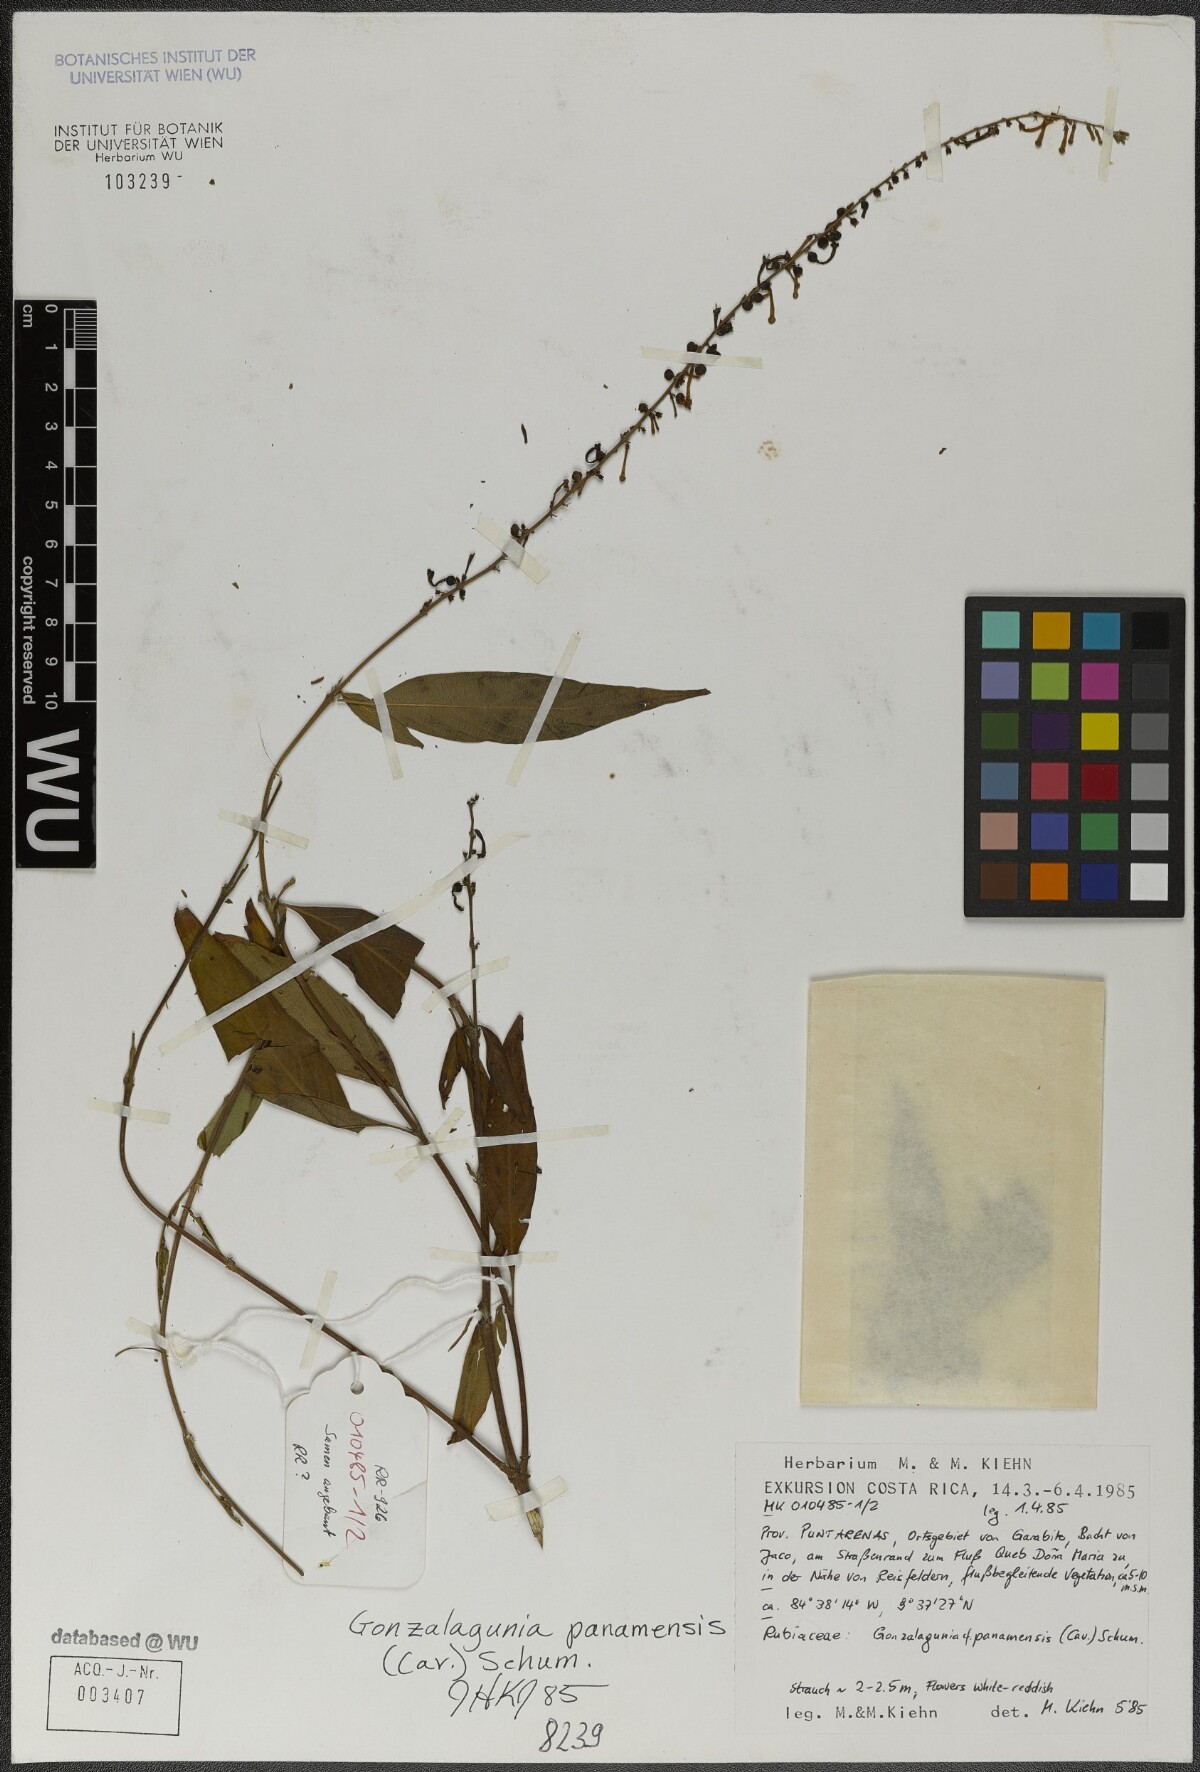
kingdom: Plantae
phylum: Tracheophyta
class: Magnoliopsida
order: Gentianales
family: Rubiaceae
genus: Gonzalagunia
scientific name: Gonzalagunia panamensis
